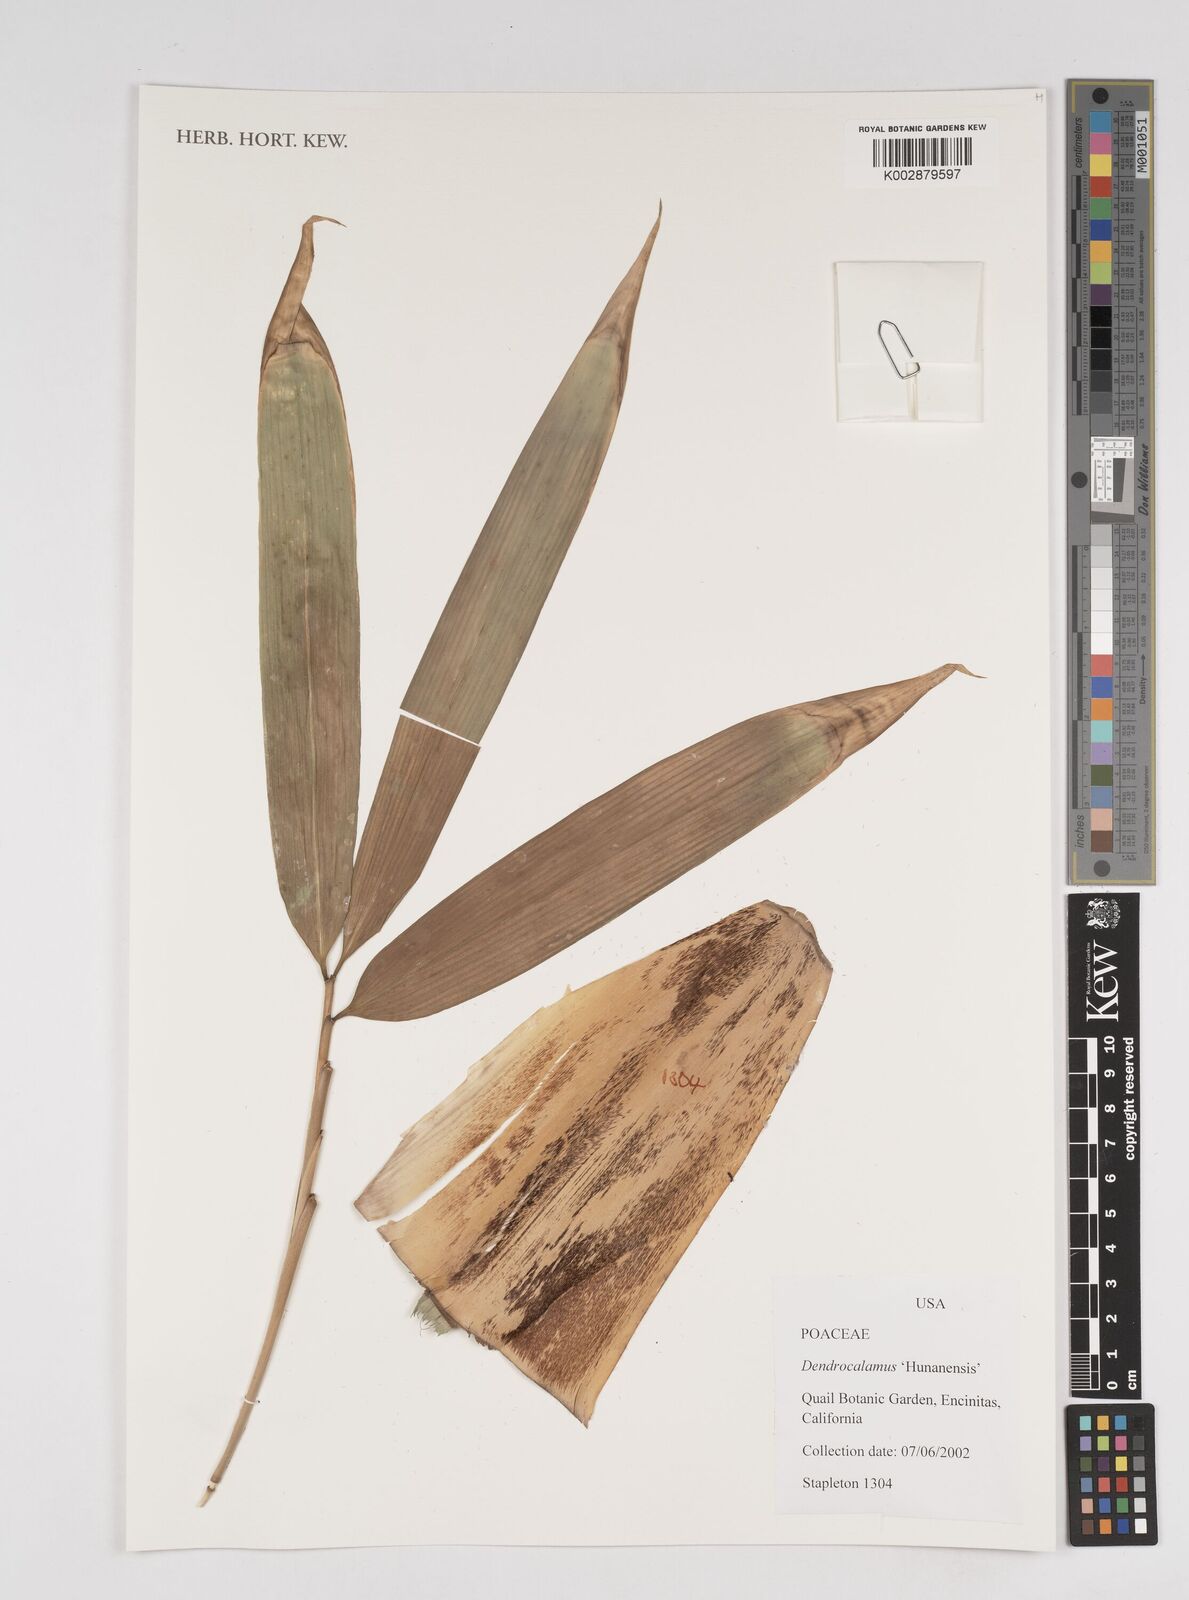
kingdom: Plantae
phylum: Tracheophyta
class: Liliopsida
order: Poales
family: Poaceae
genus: Dendrocalamus
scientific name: Dendrocalamus
